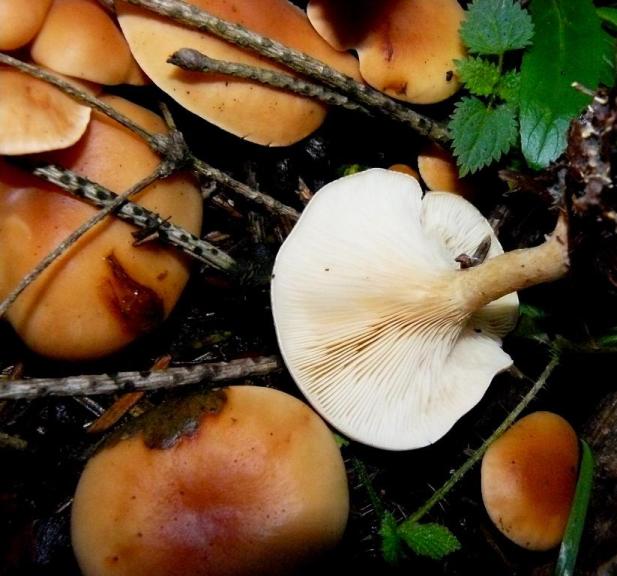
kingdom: Fungi
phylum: Basidiomycota
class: Agaricomycetes
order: Agaricales
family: Tricholomataceae
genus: Paralepista
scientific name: Paralepista flaccida
